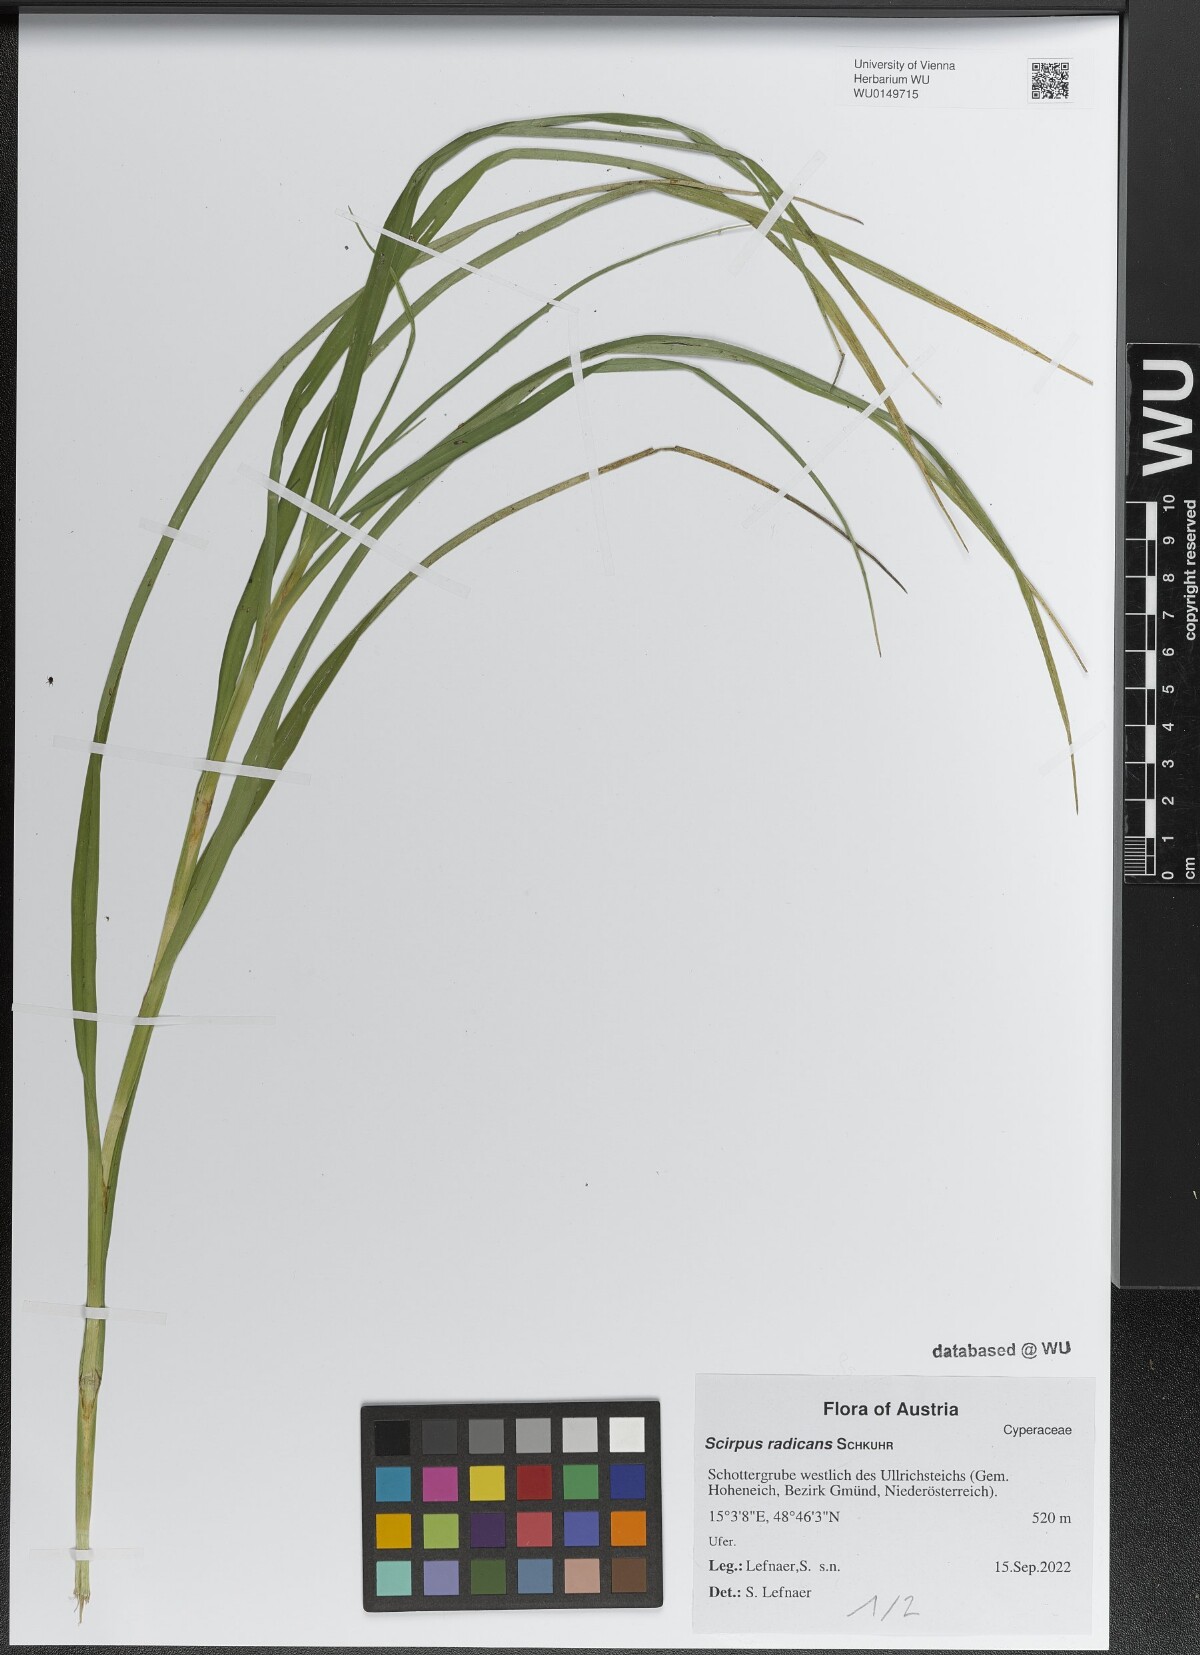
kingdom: Plantae
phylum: Tracheophyta
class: Liliopsida
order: Poales
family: Cyperaceae
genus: Scirpus
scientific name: Scirpus radicans
